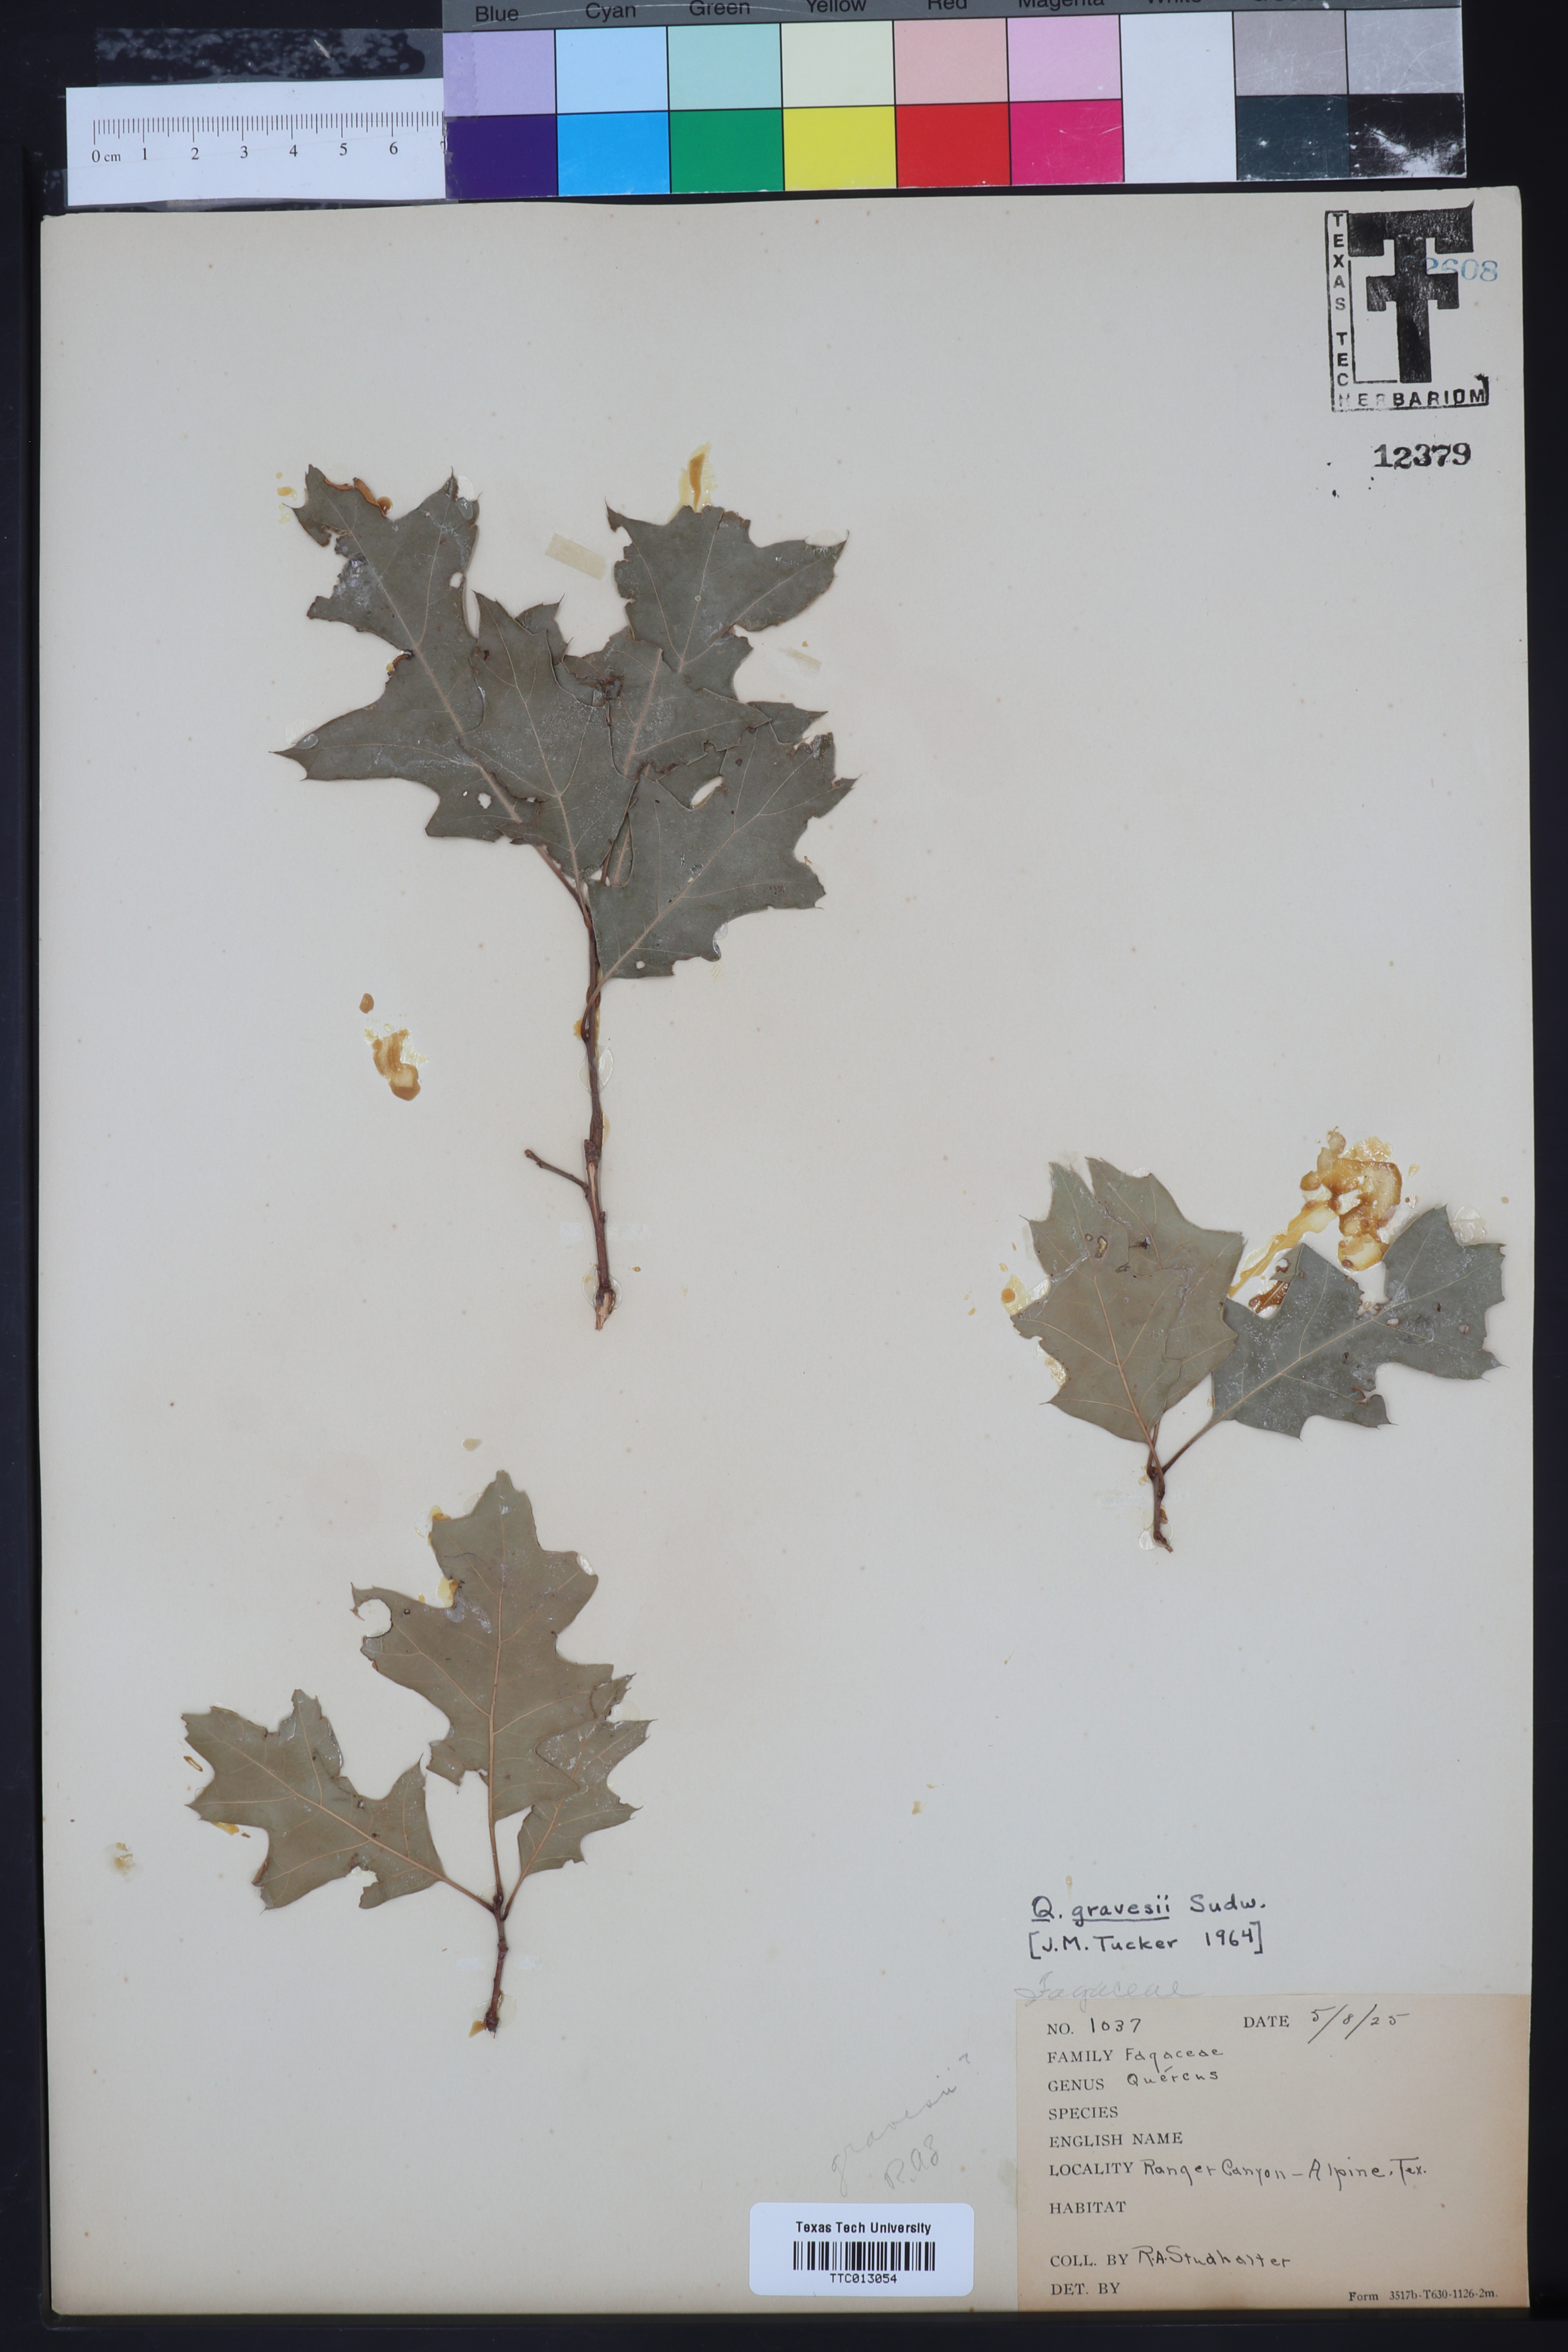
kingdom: Plantae
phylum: Tracheophyta
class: Magnoliopsida
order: Fagales
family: Fagaceae
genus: Quercus
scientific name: Quercus gravesii
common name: Chisos red oak
